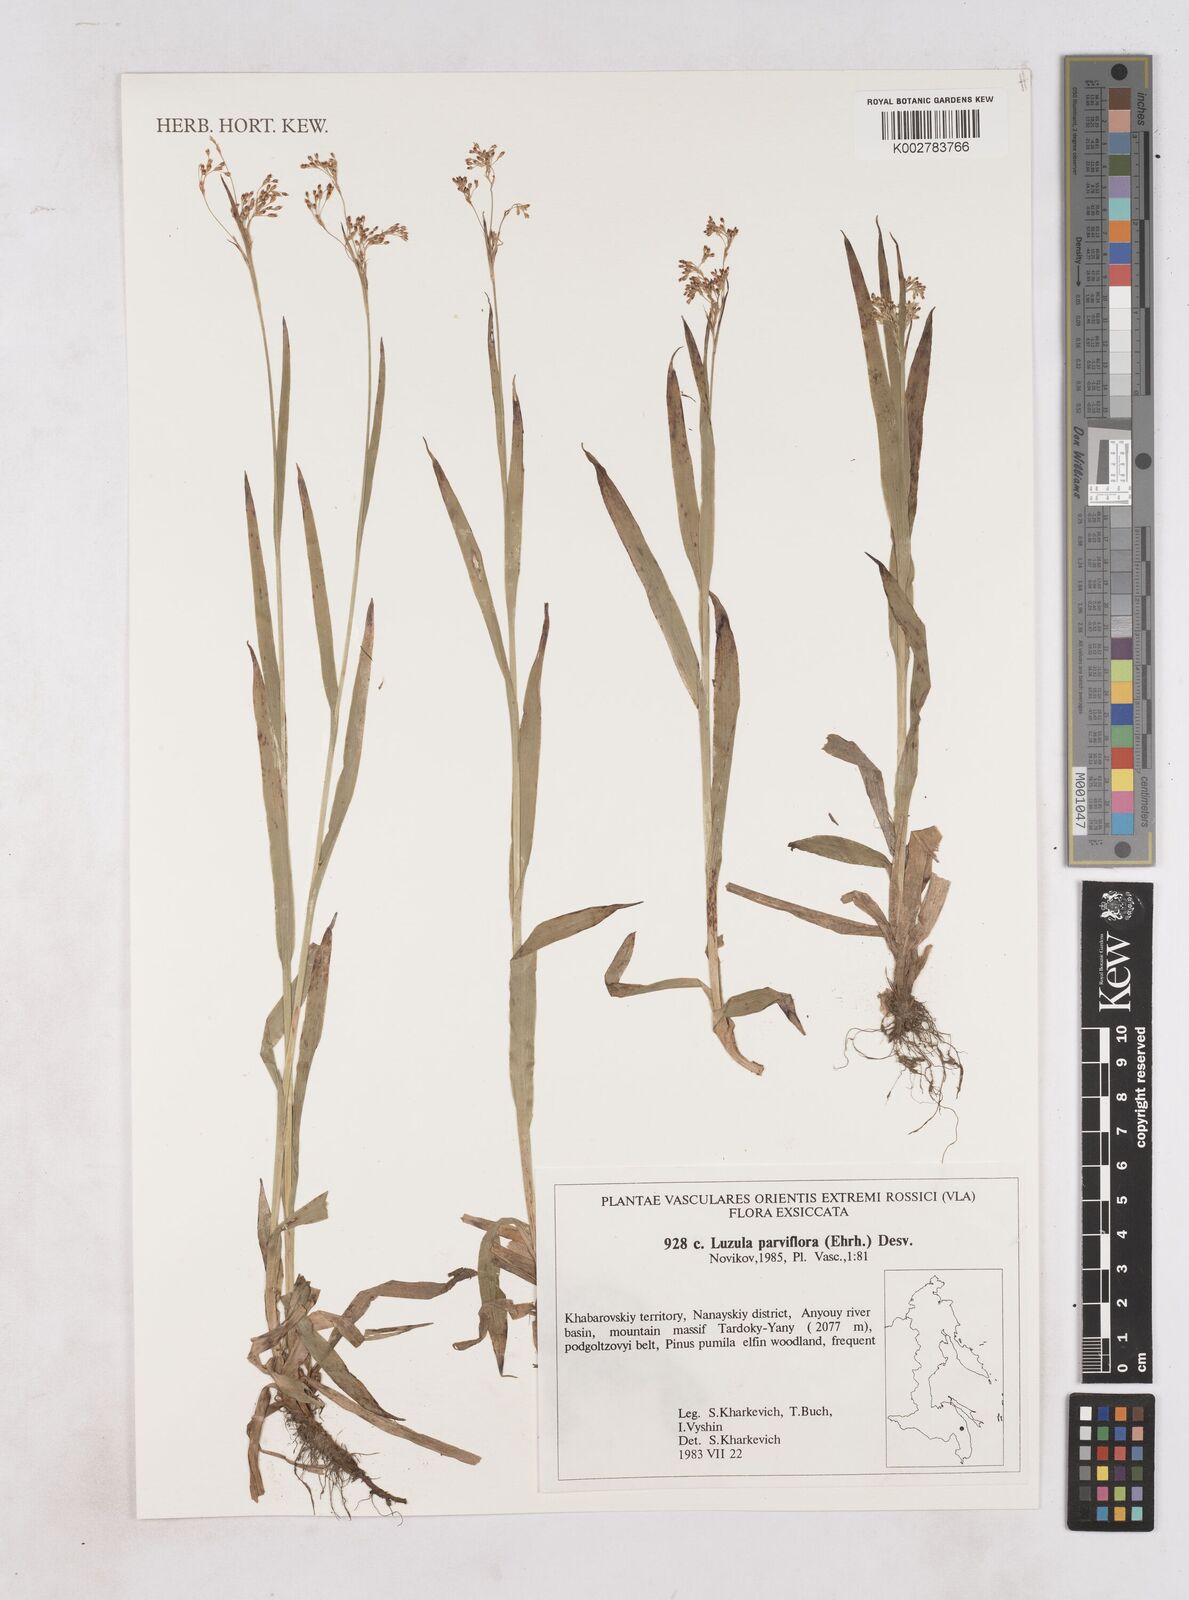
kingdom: Plantae
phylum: Tracheophyta
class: Liliopsida
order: Poales
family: Juncaceae
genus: Luzula
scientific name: Luzula parviflora
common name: Millet woodrush
